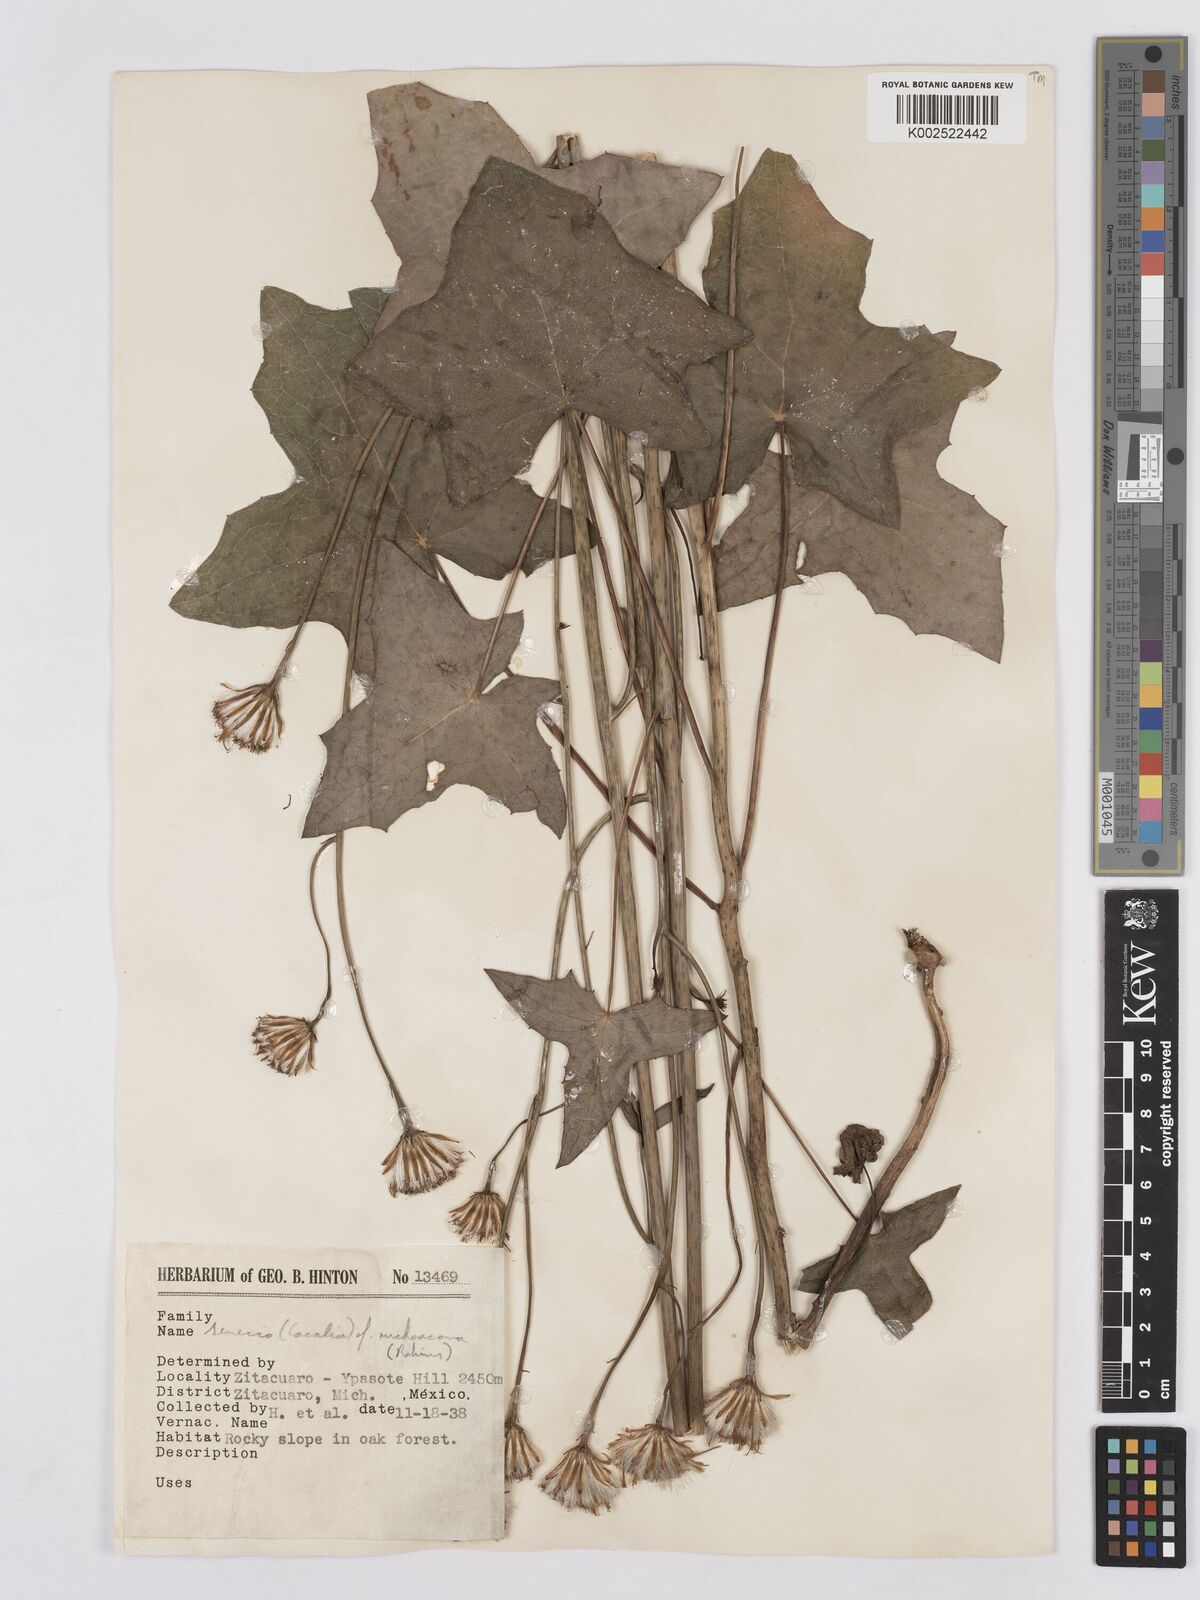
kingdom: Plantae
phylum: Tracheophyta
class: Magnoliopsida
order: Asterales
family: Asteraceae
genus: Roldana
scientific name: Roldana michoacana
